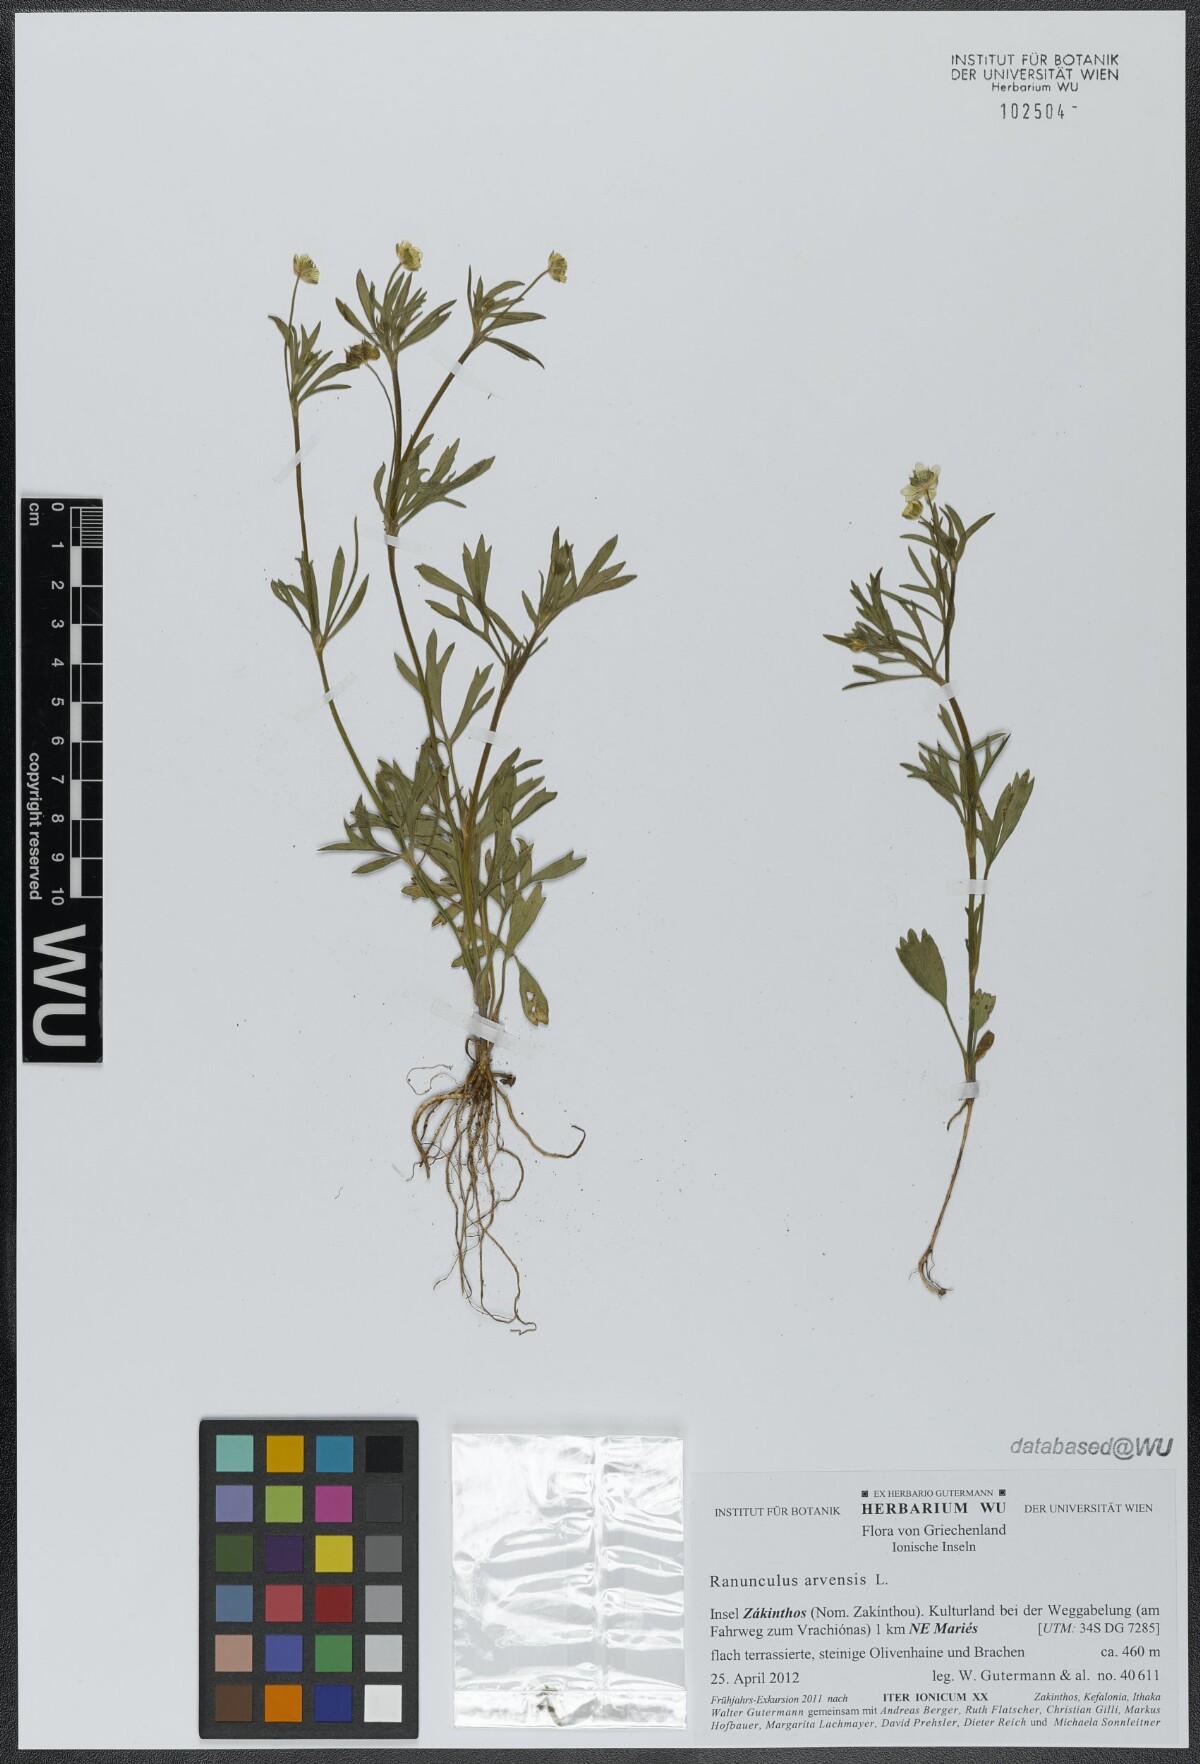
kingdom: Plantae
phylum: Tracheophyta
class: Magnoliopsida
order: Ranunculales
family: Ranunculaceae
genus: Ranunculus
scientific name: Ranunculus arvensis
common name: Corn buttercup
